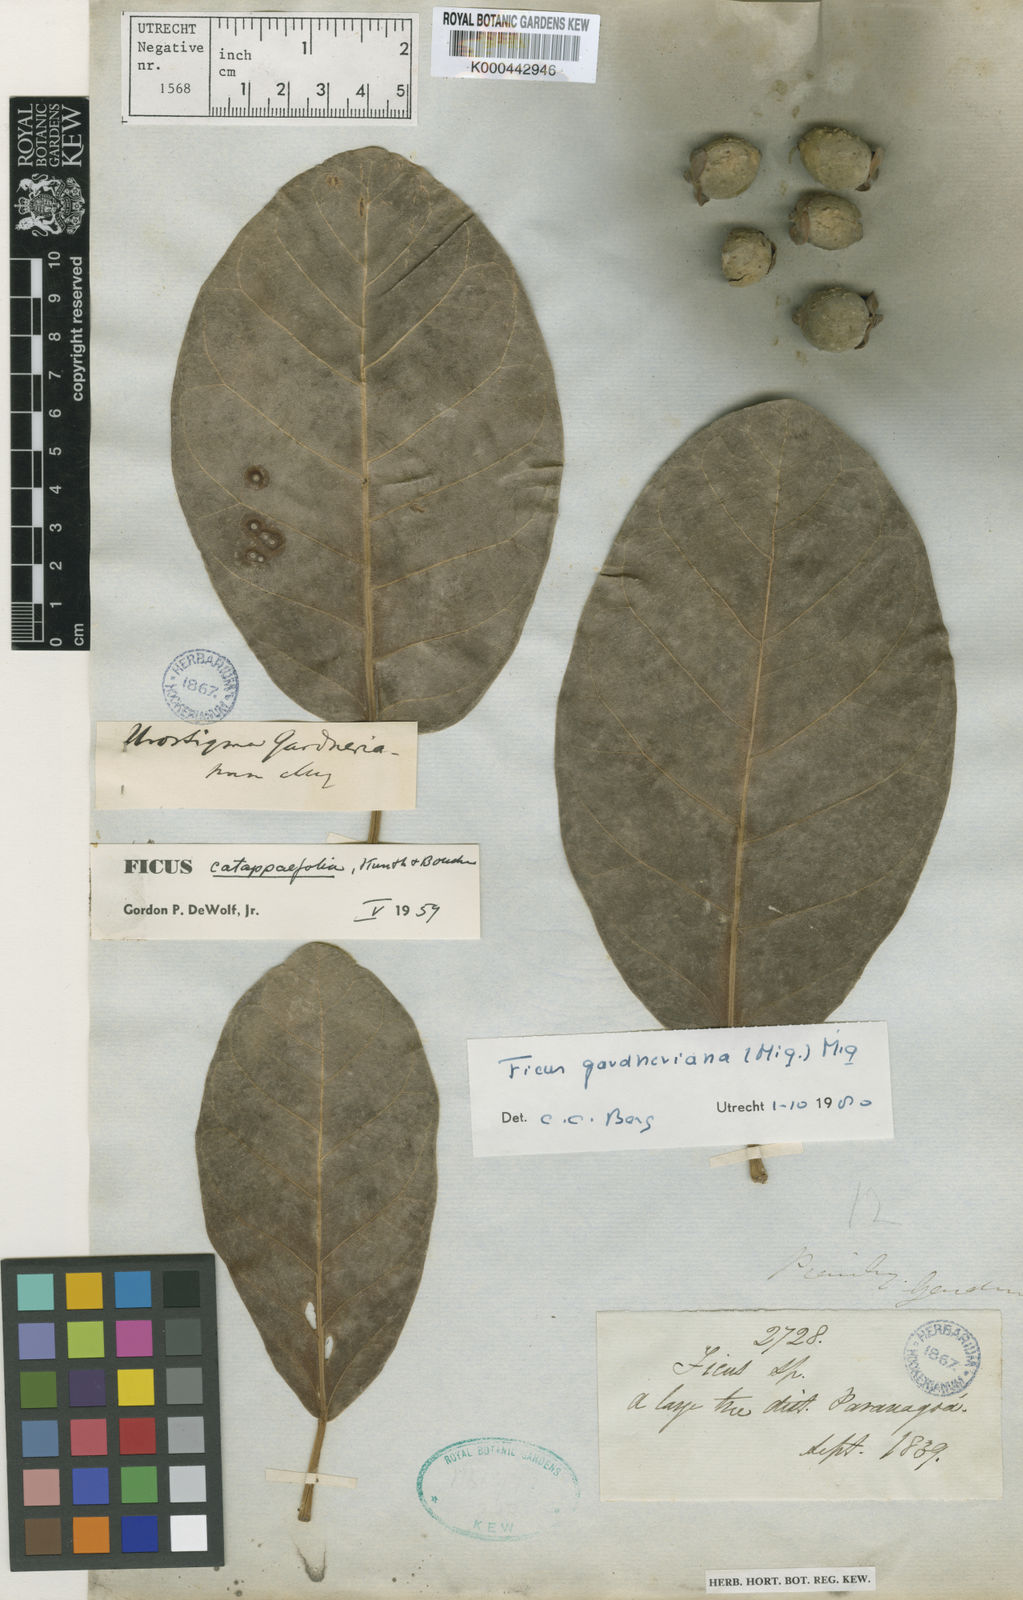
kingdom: Plantae
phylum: Tracheophyta
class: Magnoliopsida
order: Rosales
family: Moraceae
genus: Ficus
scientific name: Ficus obtusifolia
